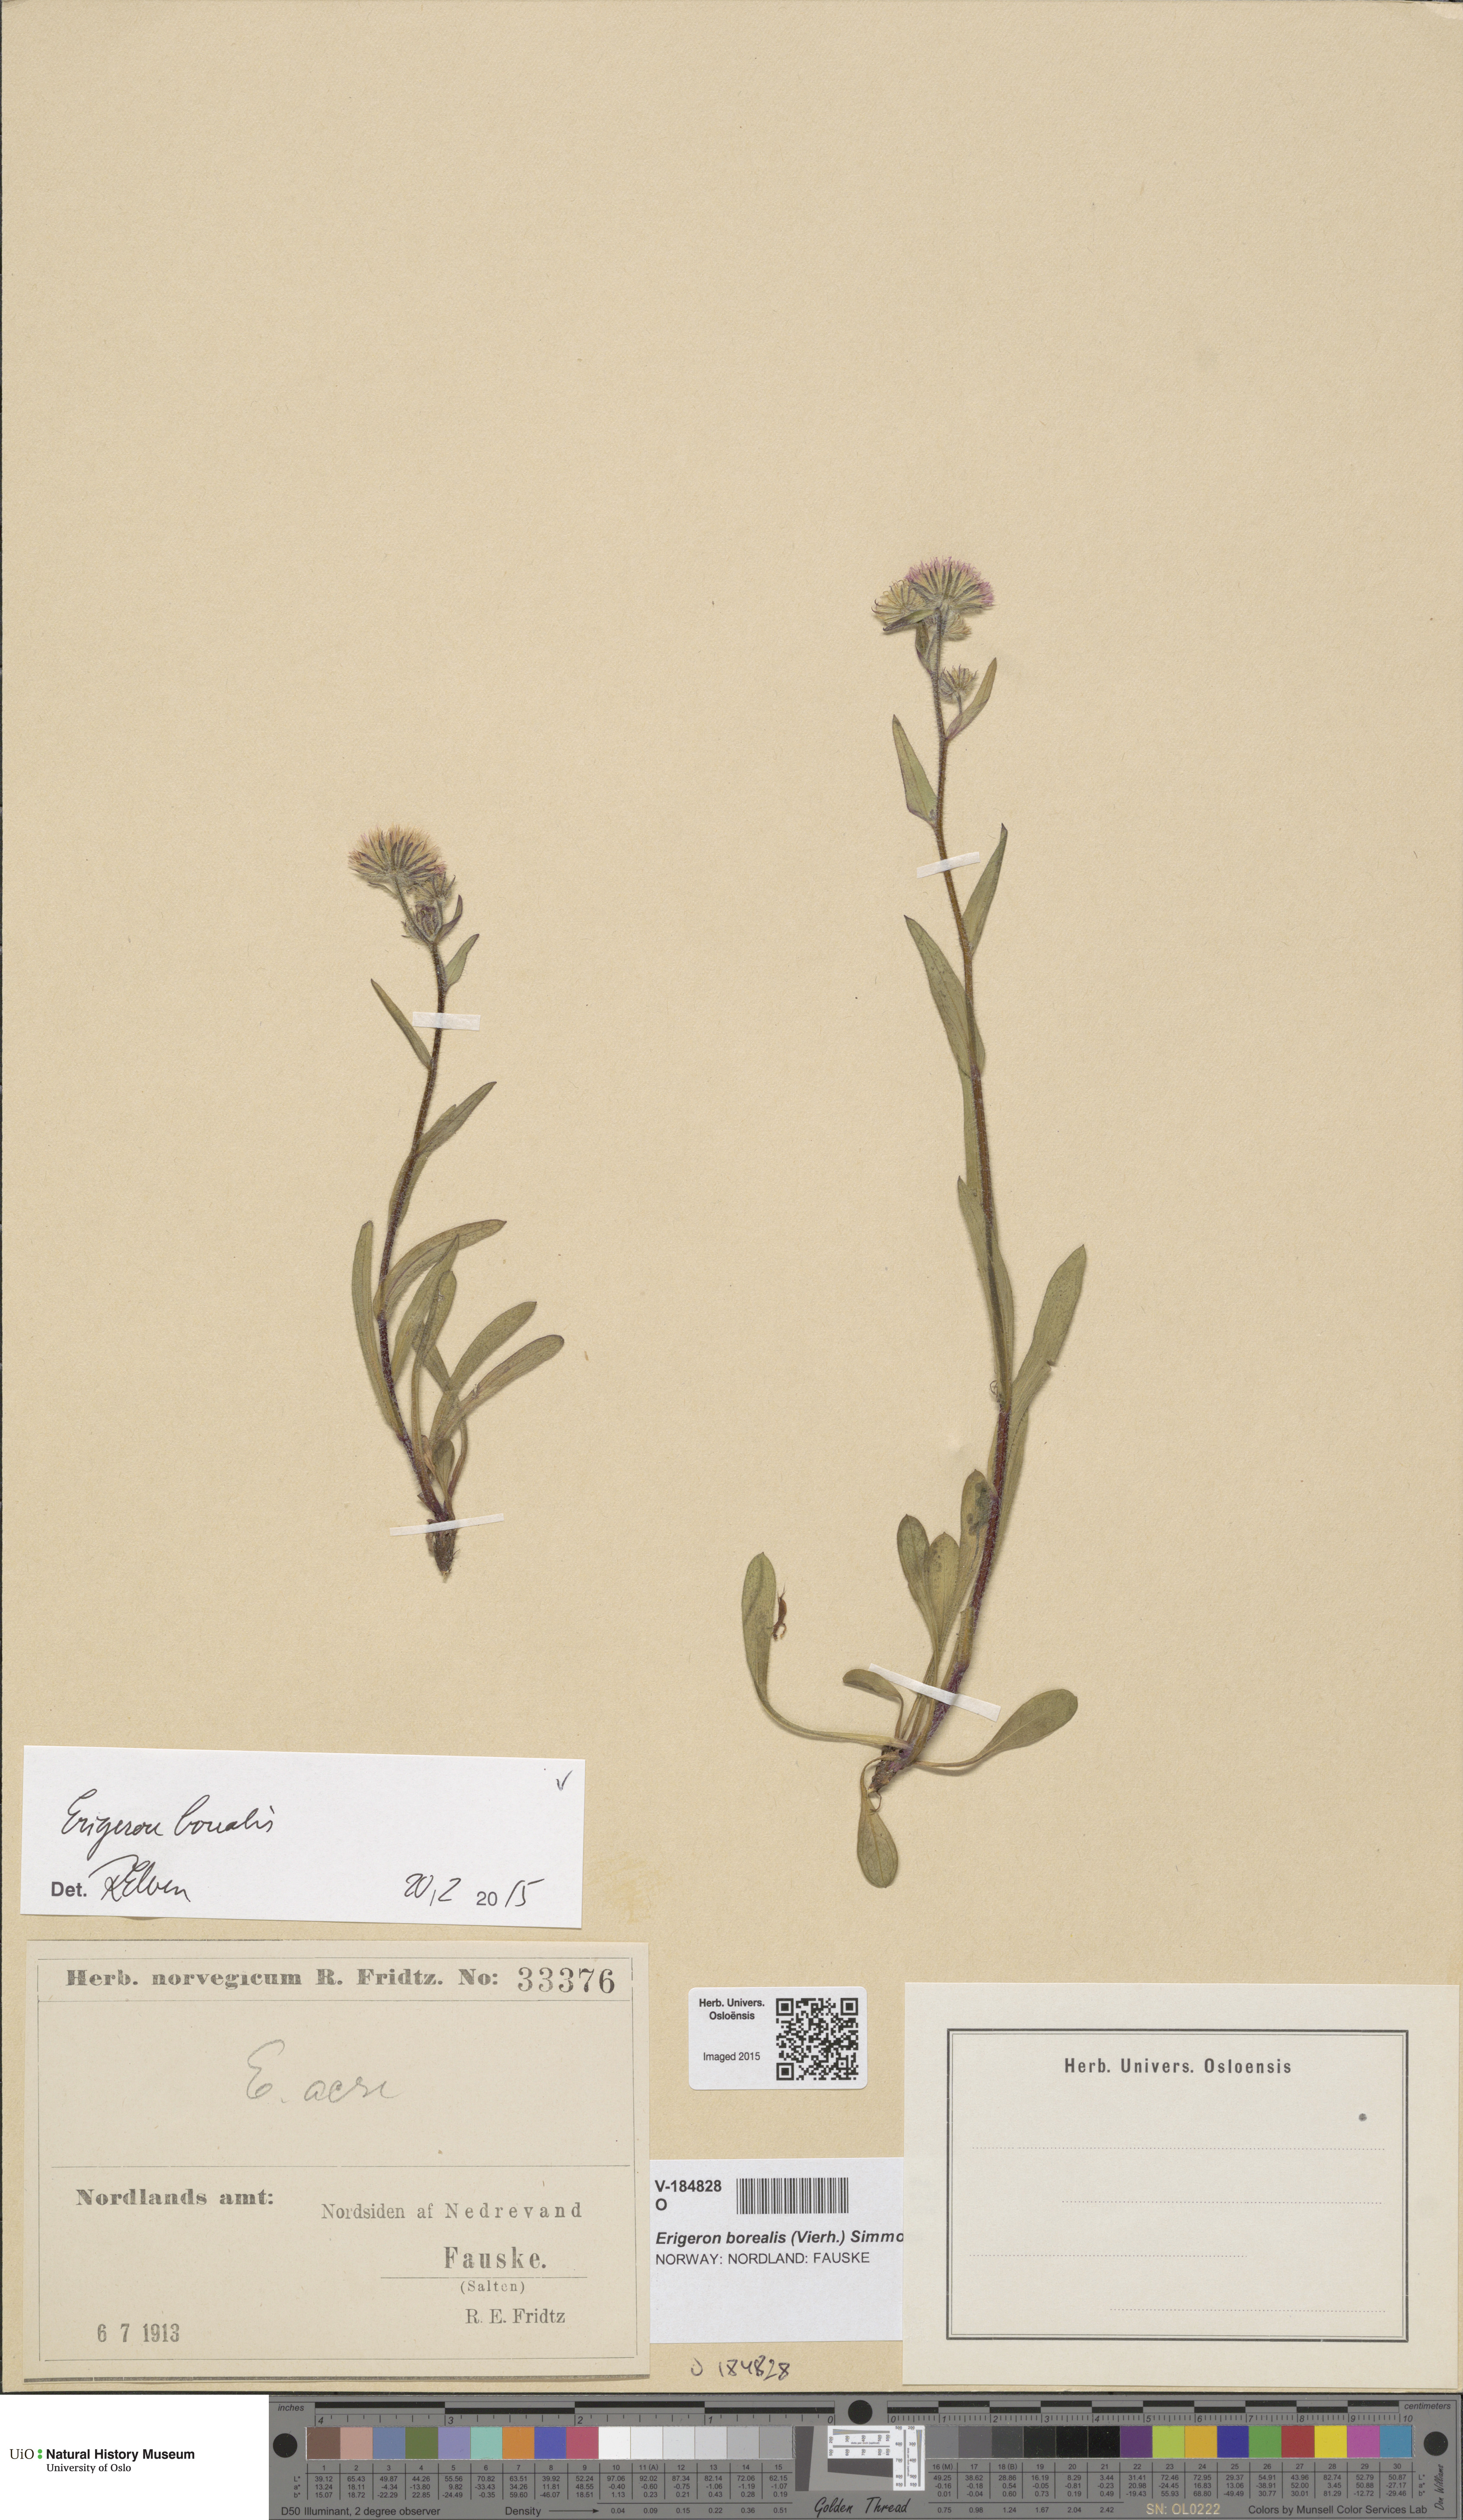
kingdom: Plantae
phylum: Tracheophyta
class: Magnoliopsida
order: Asterales
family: Asteraceae
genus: Erigeron
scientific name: Erigeron borealis
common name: Alpine fleabane
